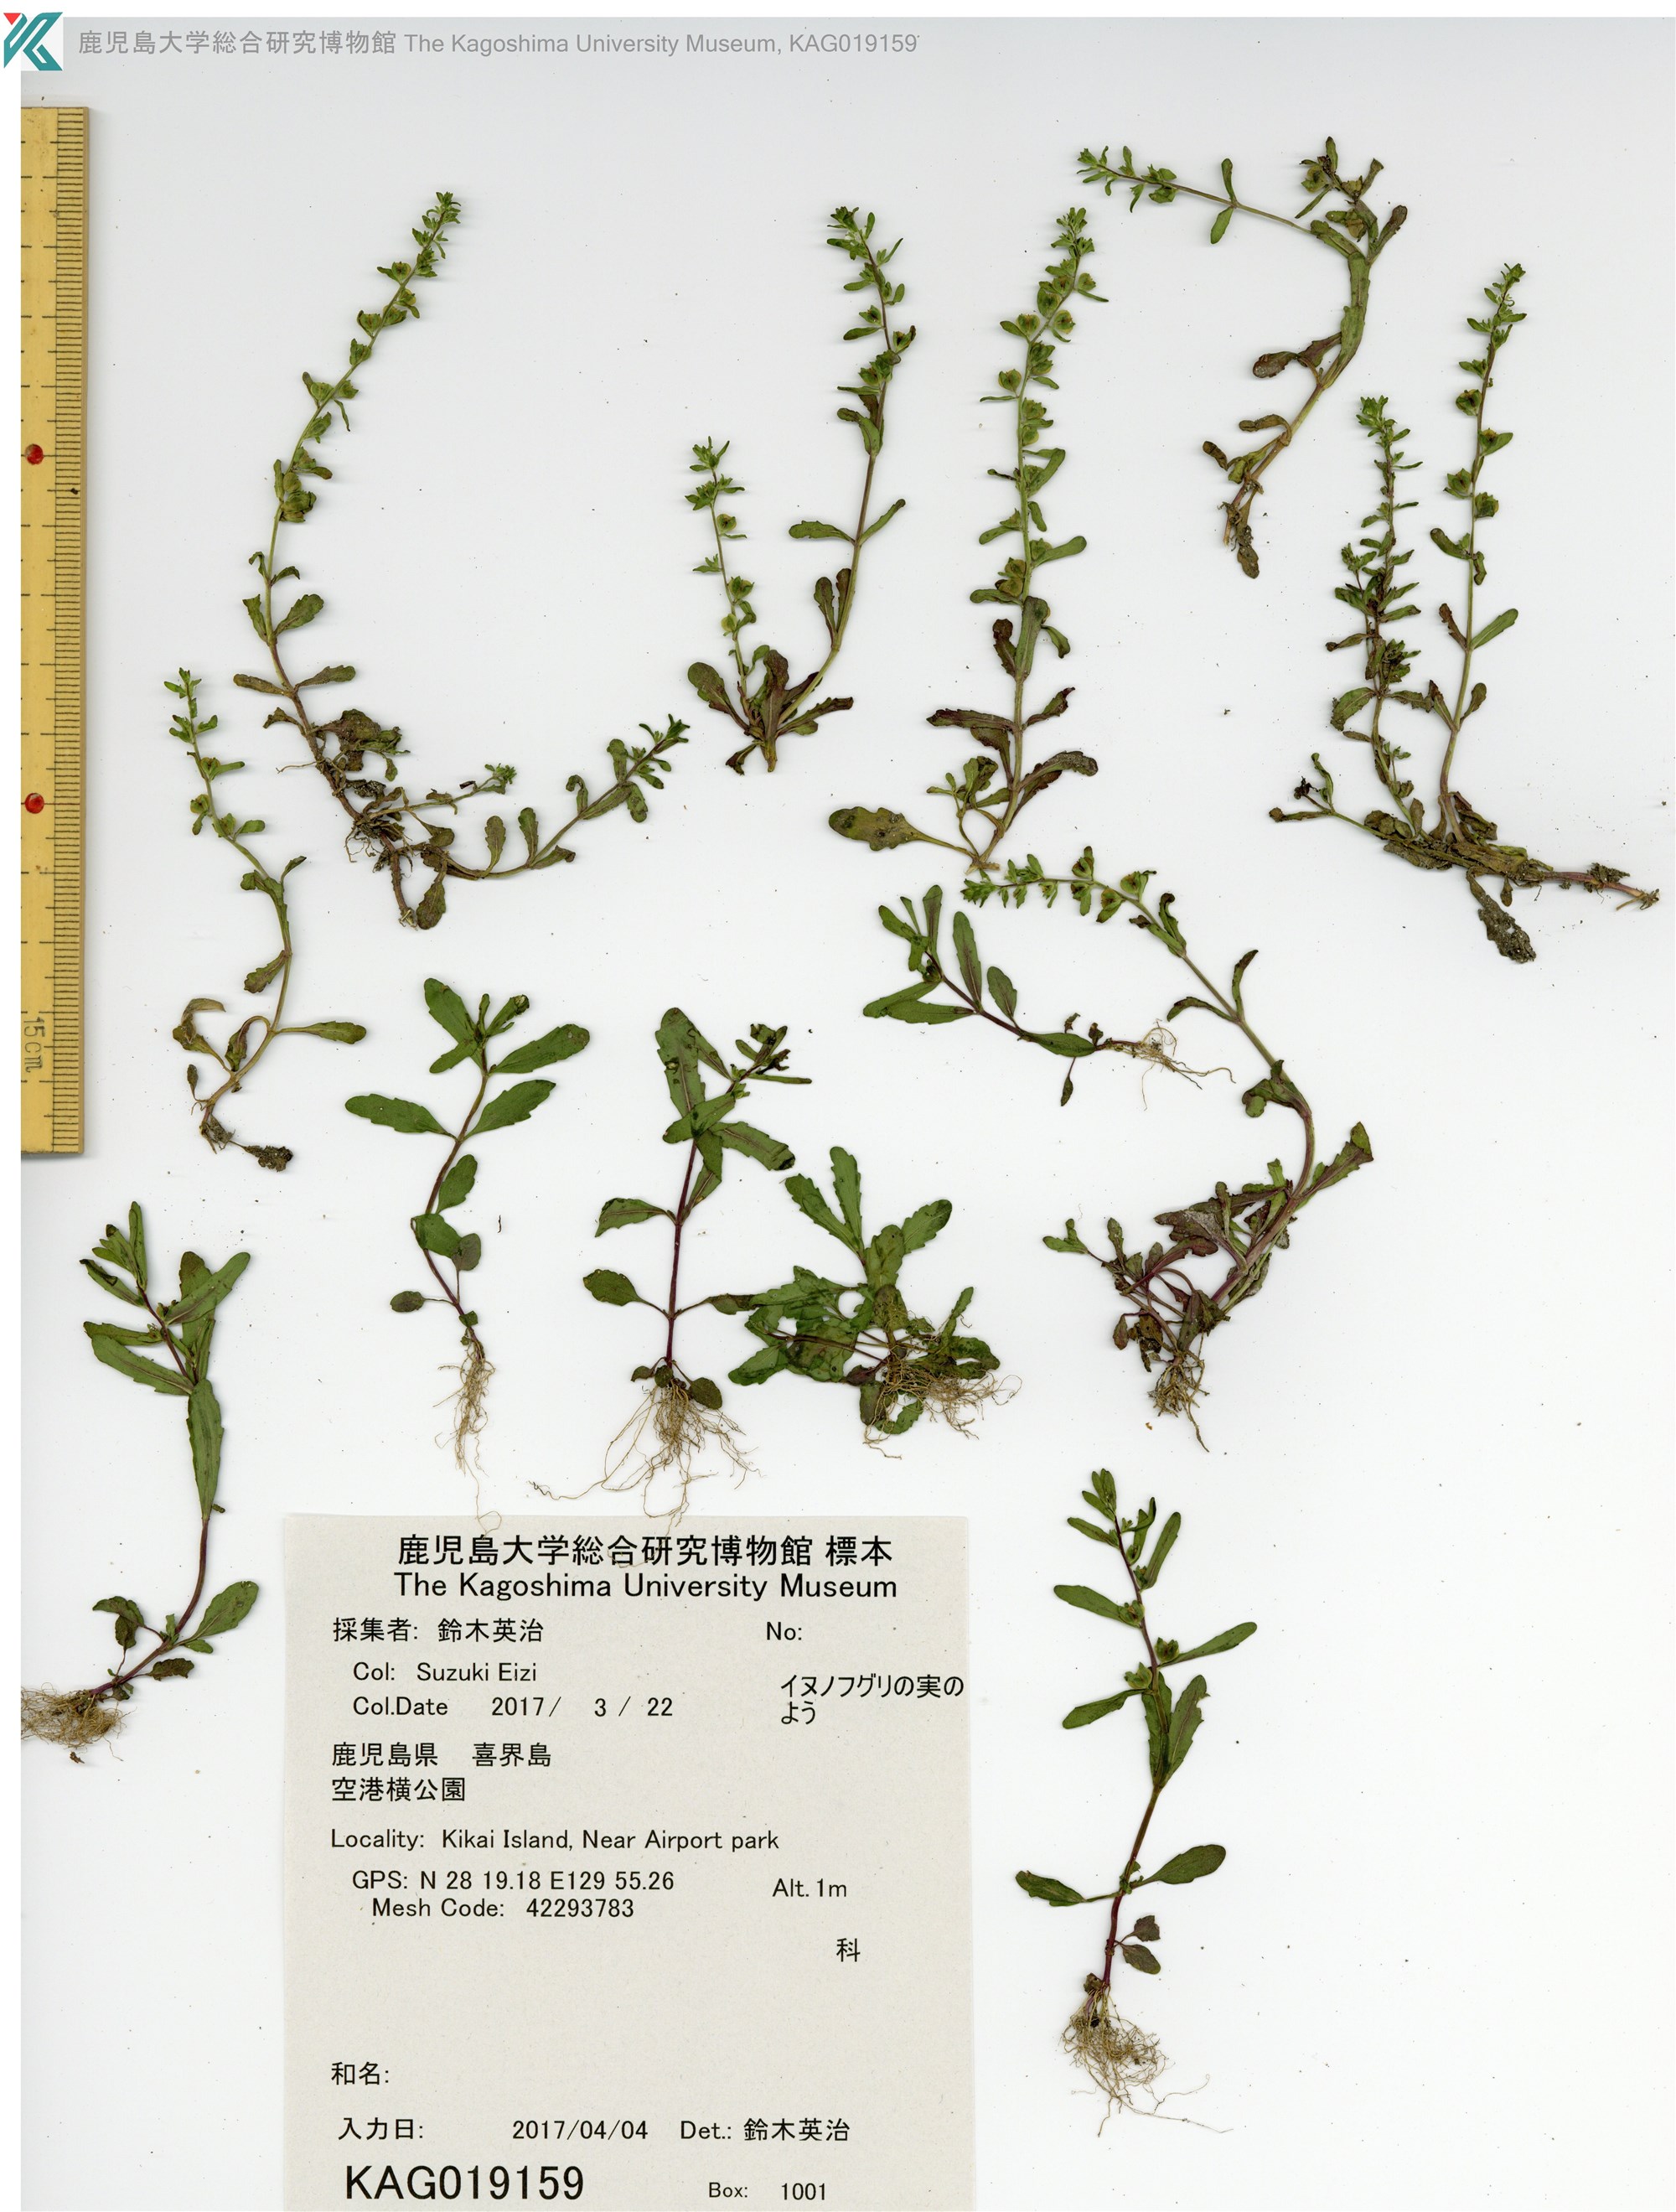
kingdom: Plantae
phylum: Tracheophyta
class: Magnoliopsida
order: Lamiales
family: Plantaginaceae
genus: Veronica
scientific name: Veronica peregrina
